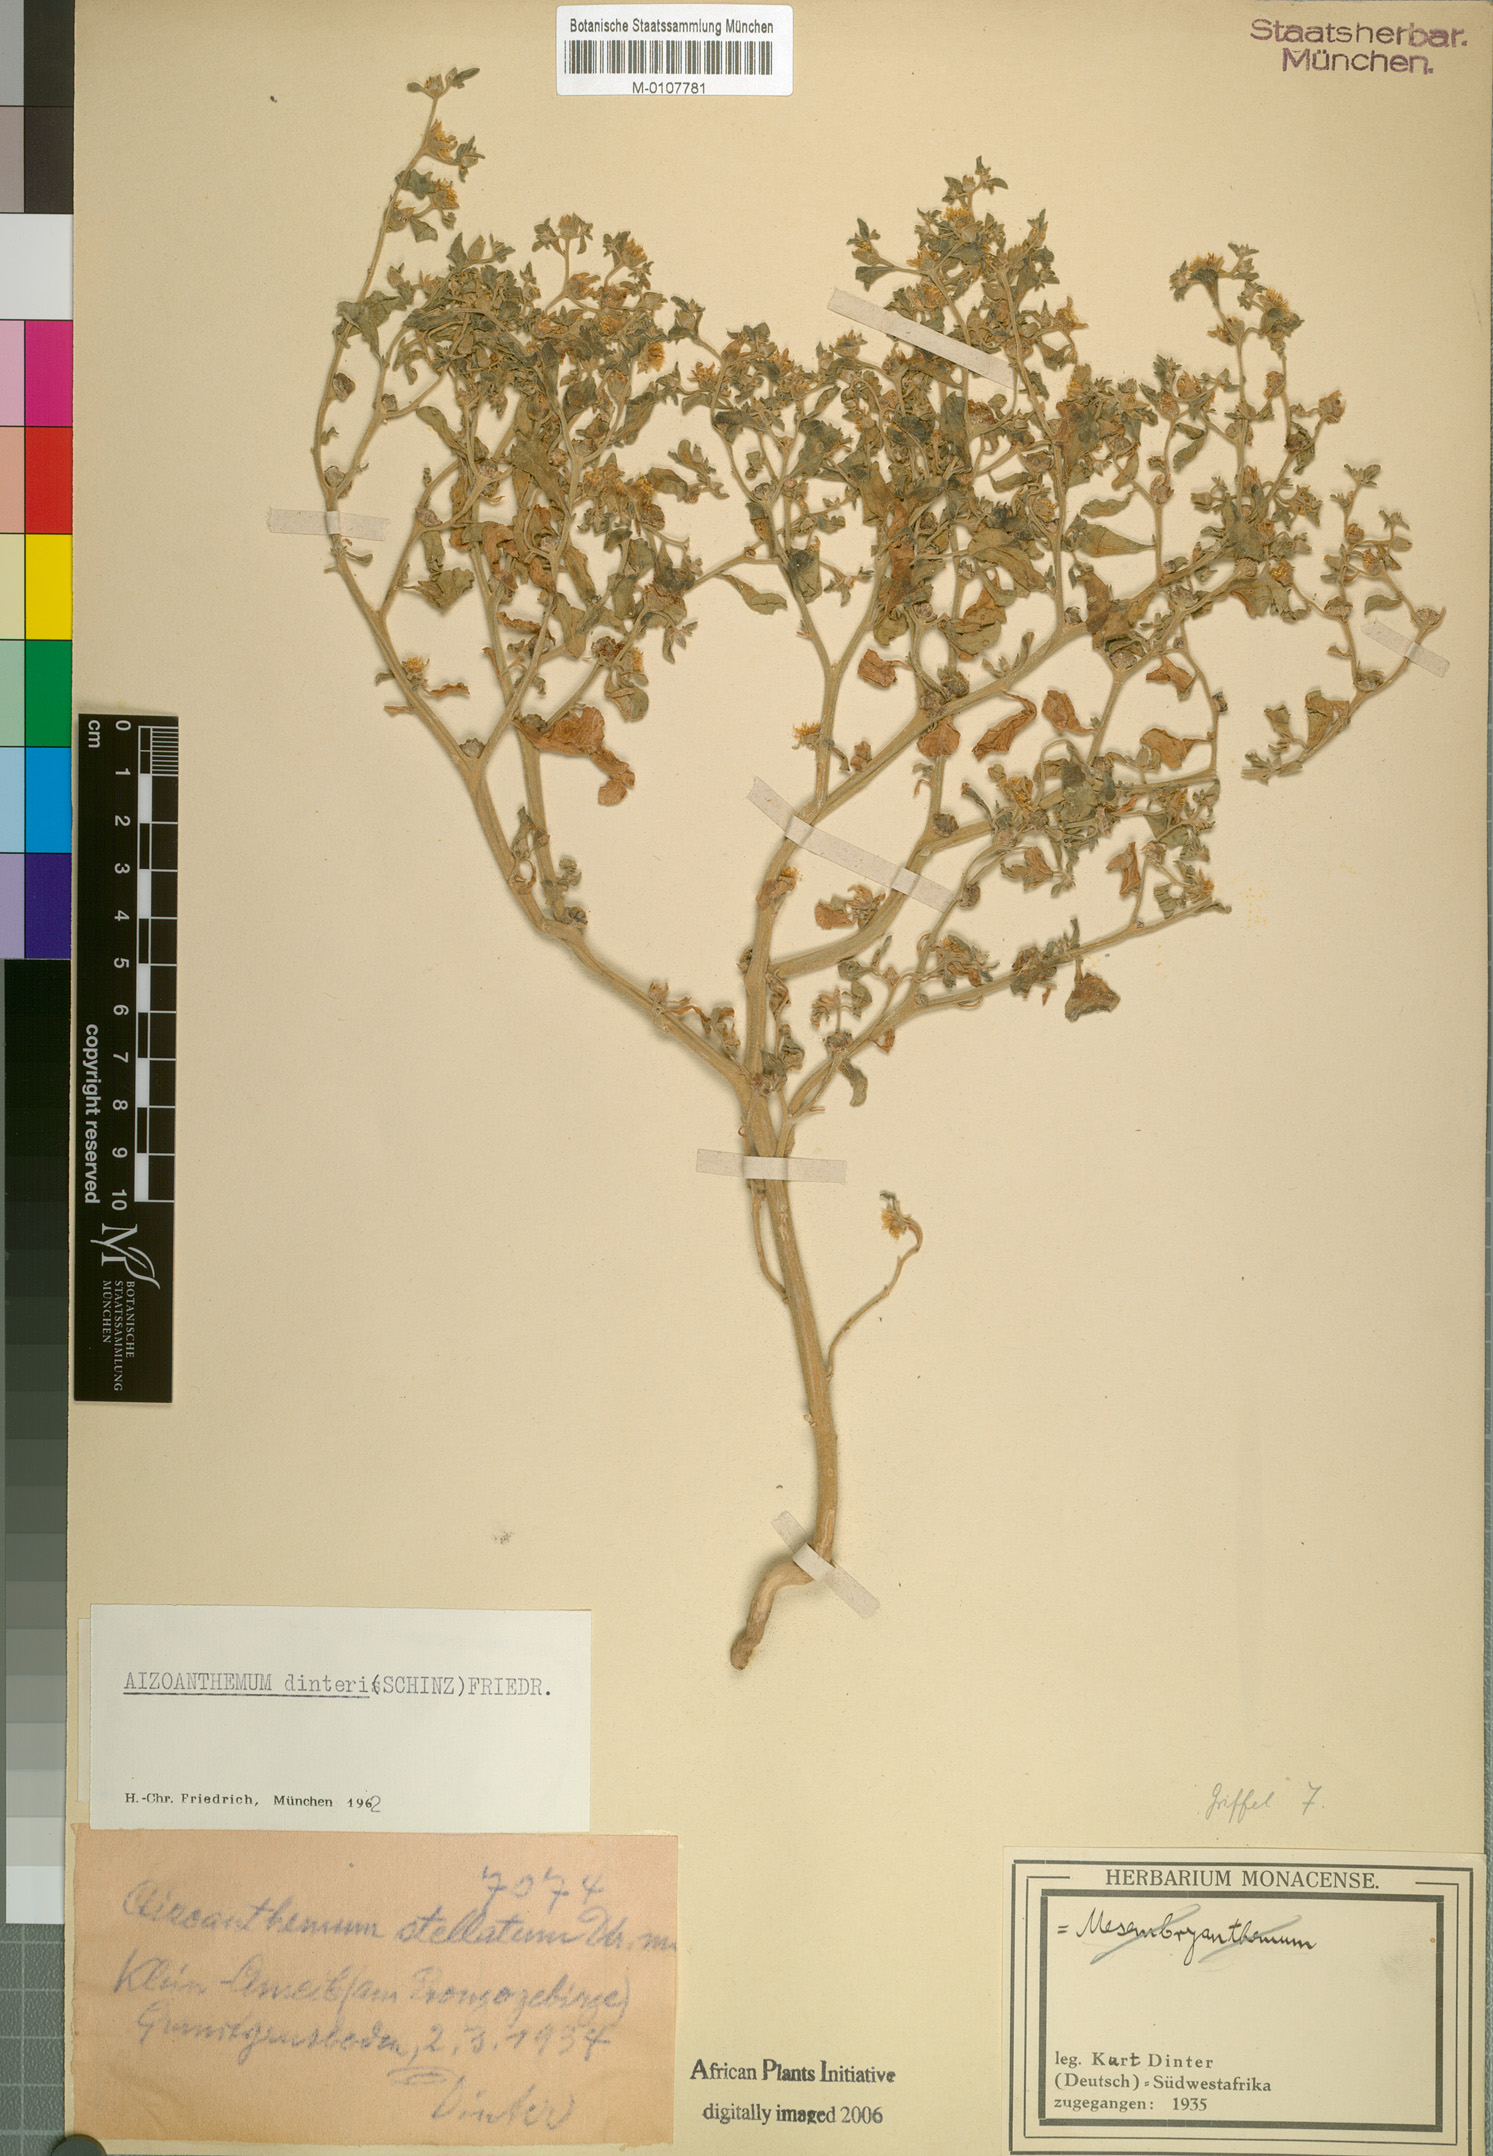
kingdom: Plantae
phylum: Tracheophyta
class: Magnoliopsida
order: Caryophyllales
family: Aizoaceae
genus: Aizoanthemum
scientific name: Aizoanthemum dinteri
